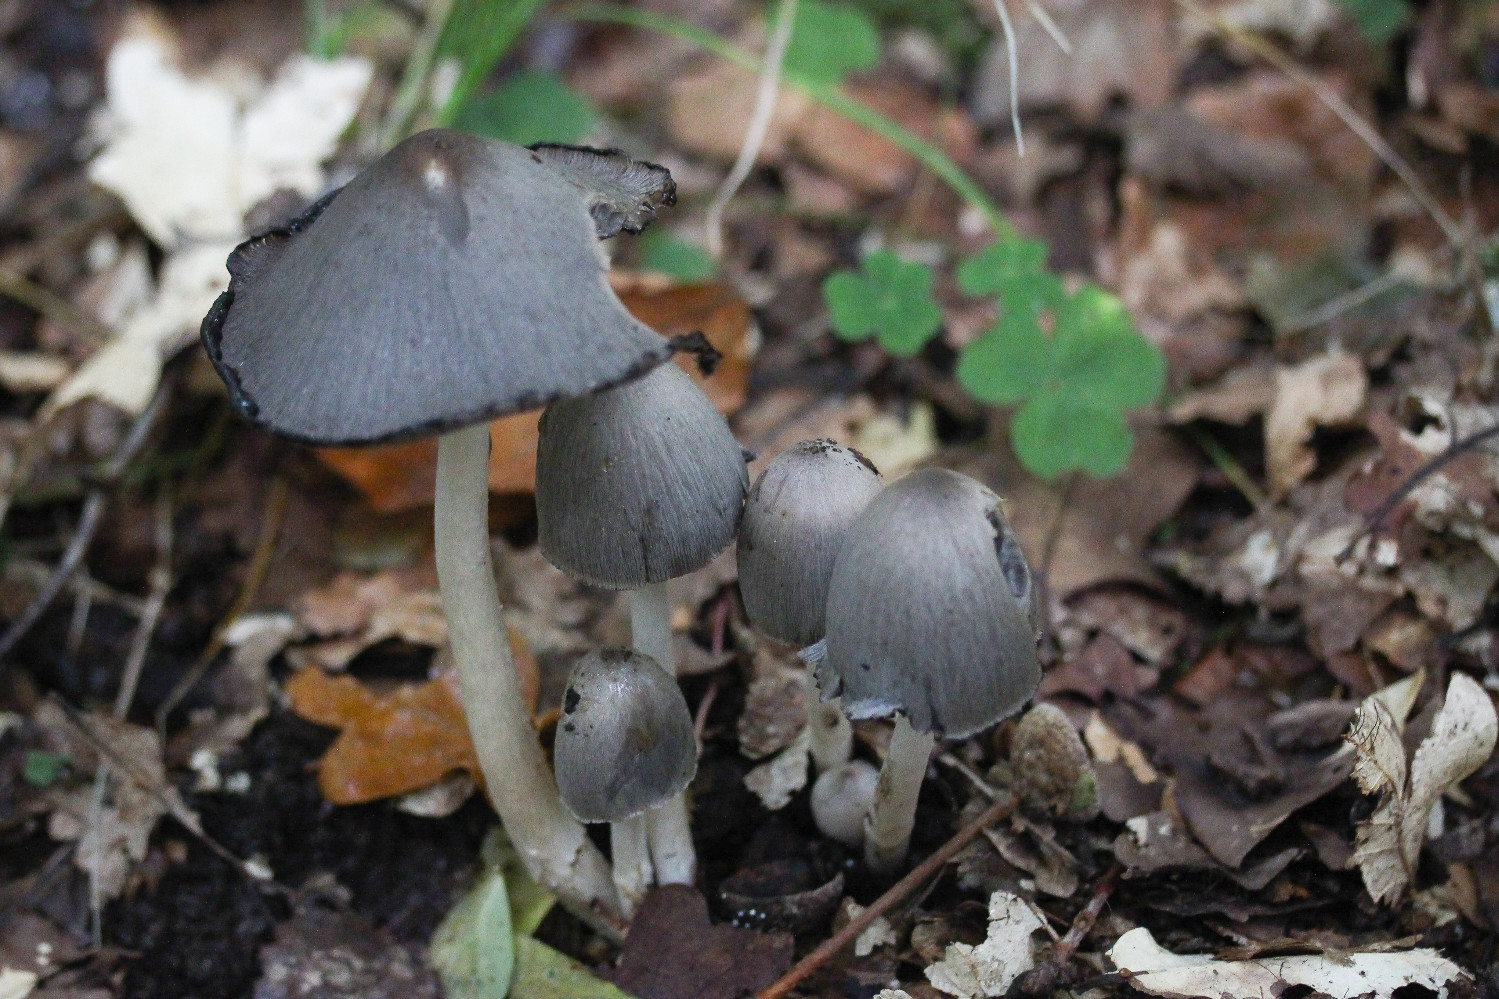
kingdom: Fungi
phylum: Basidiomycota
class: Agaricomycetes
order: Agaricales
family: Psathyrellaceae
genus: Coprinopsis
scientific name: Coprinopsis atramentaria
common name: almindelig blækhat
